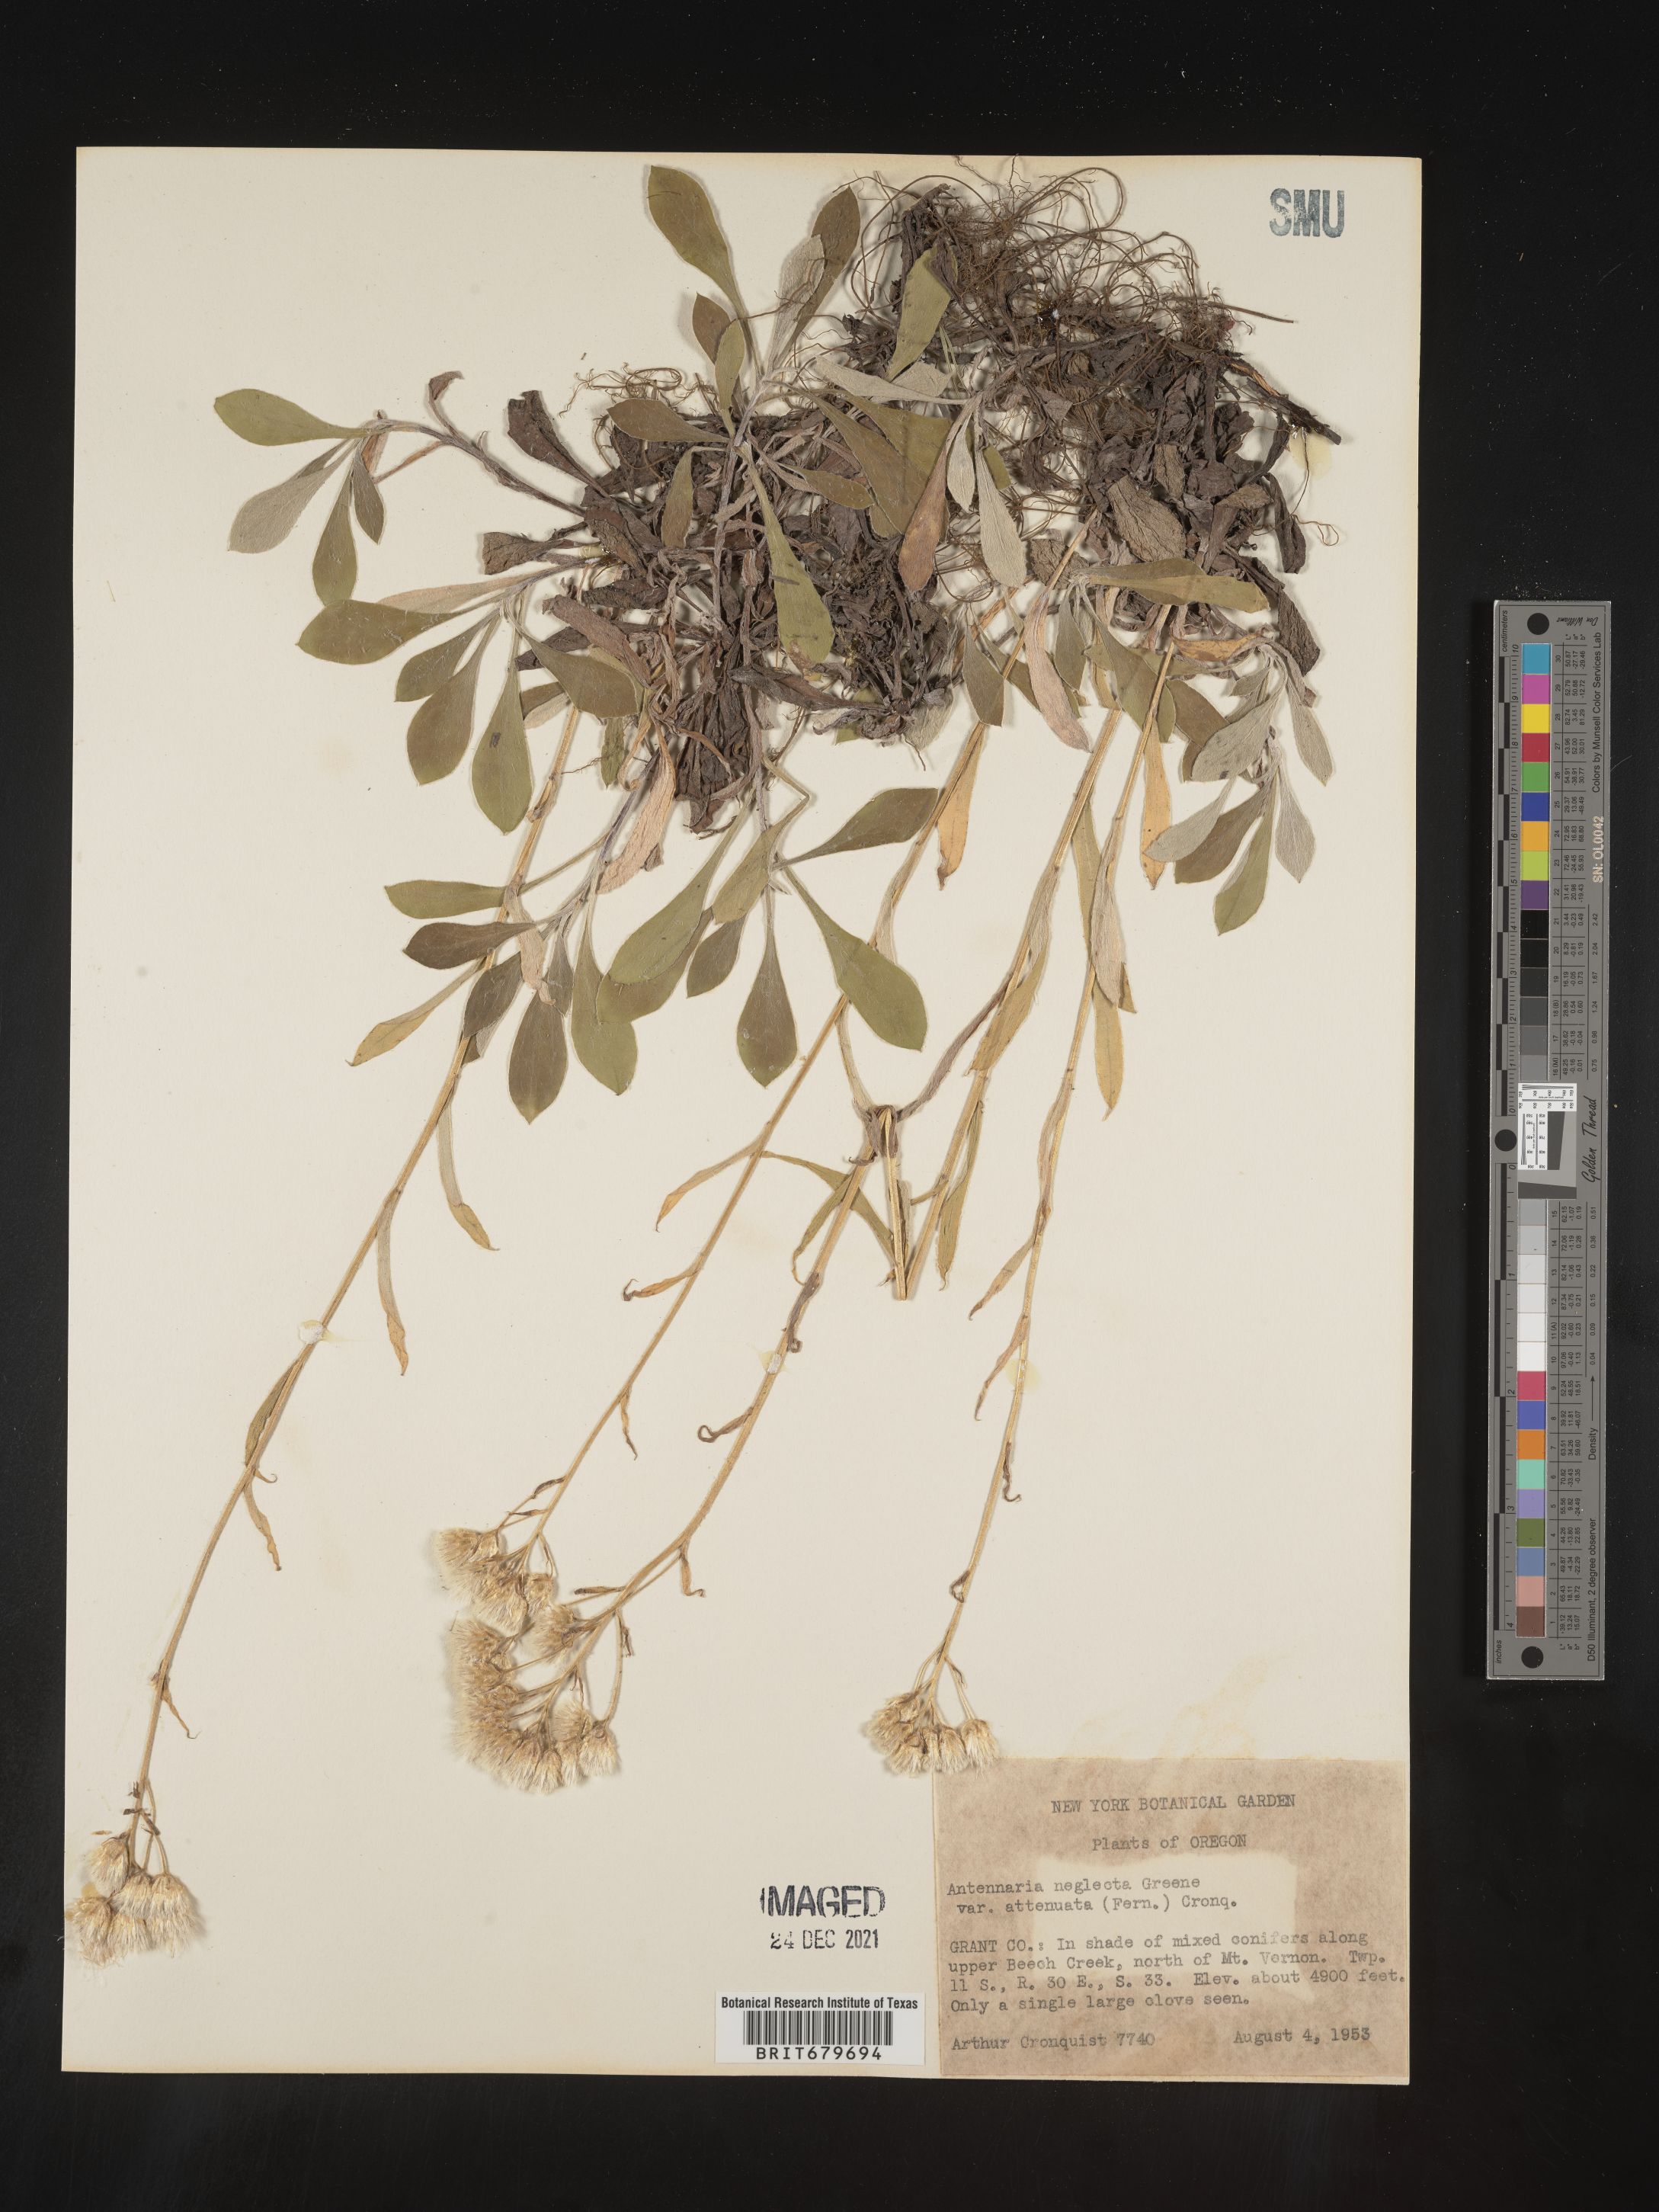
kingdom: Plantae
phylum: Tracheophyta
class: Magnoliopsida
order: Asterales
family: Asteraceae
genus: Antennaria
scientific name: Antennaria neglecta
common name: Field pussytoes
